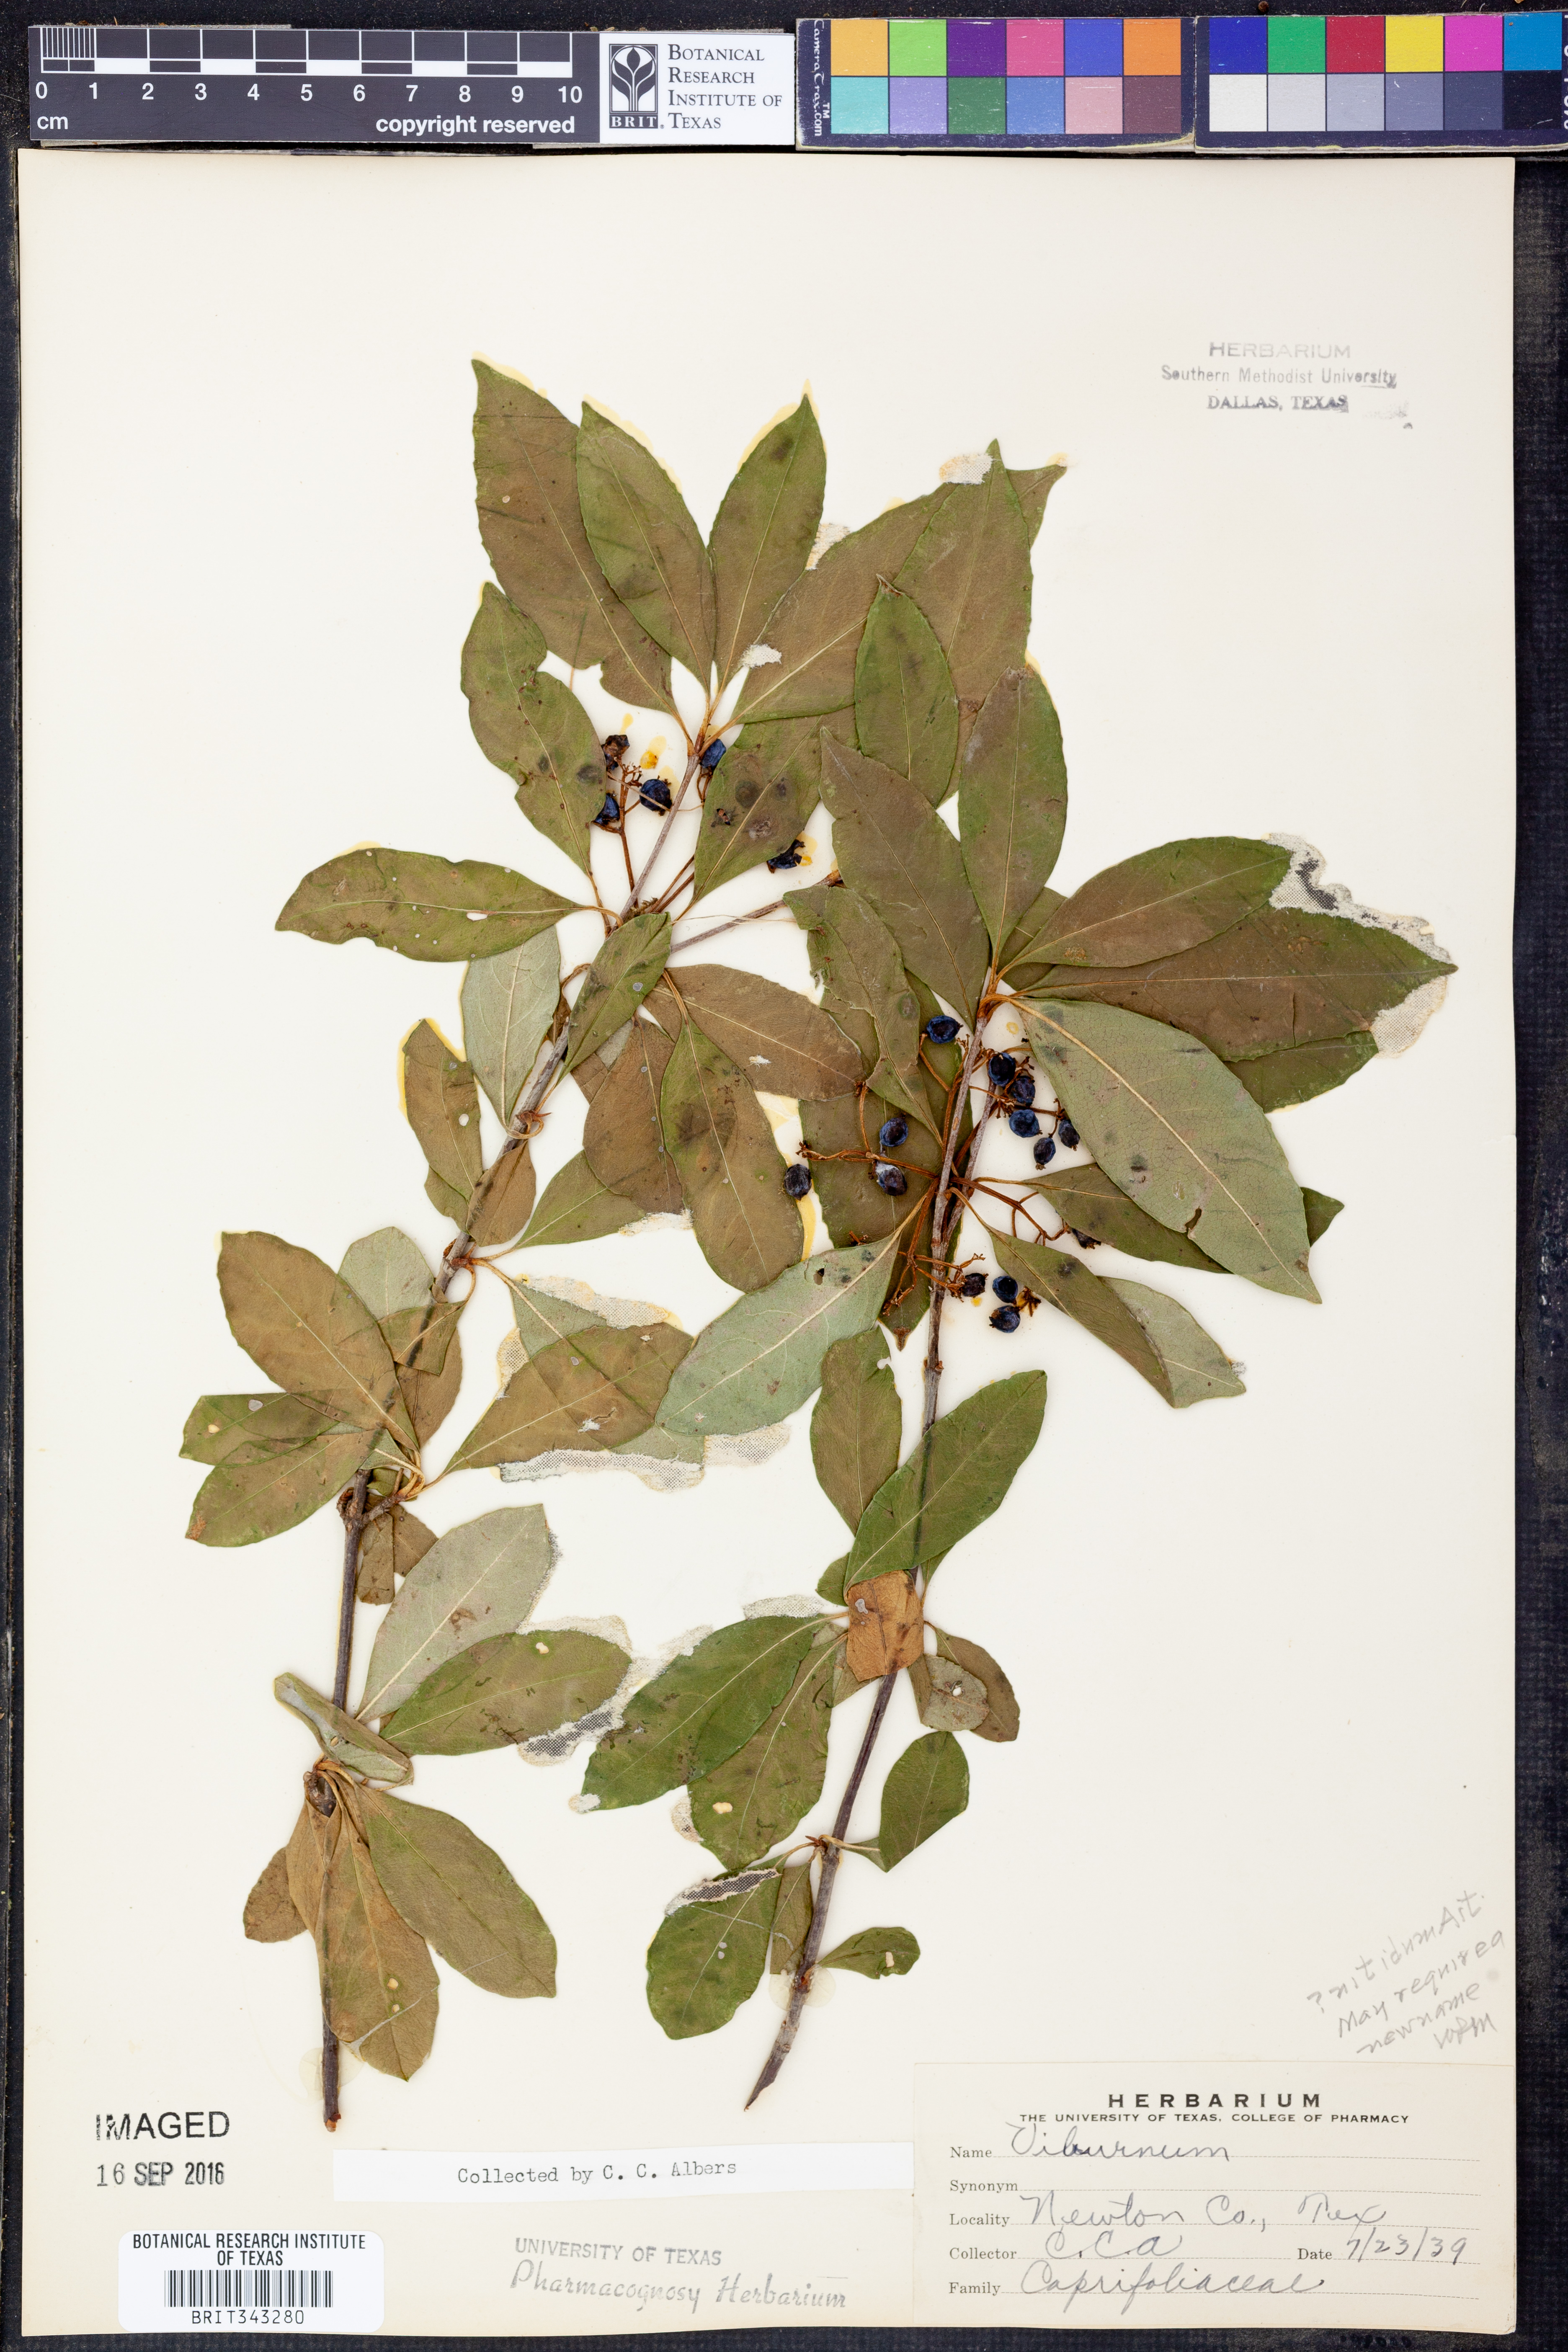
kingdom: Plantae
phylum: Tracheophyta
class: Magnoliopsida
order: Dipsacales
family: Viburnaceae
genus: Viburnum
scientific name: Viburnum cassinoides
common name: Swamp haw
